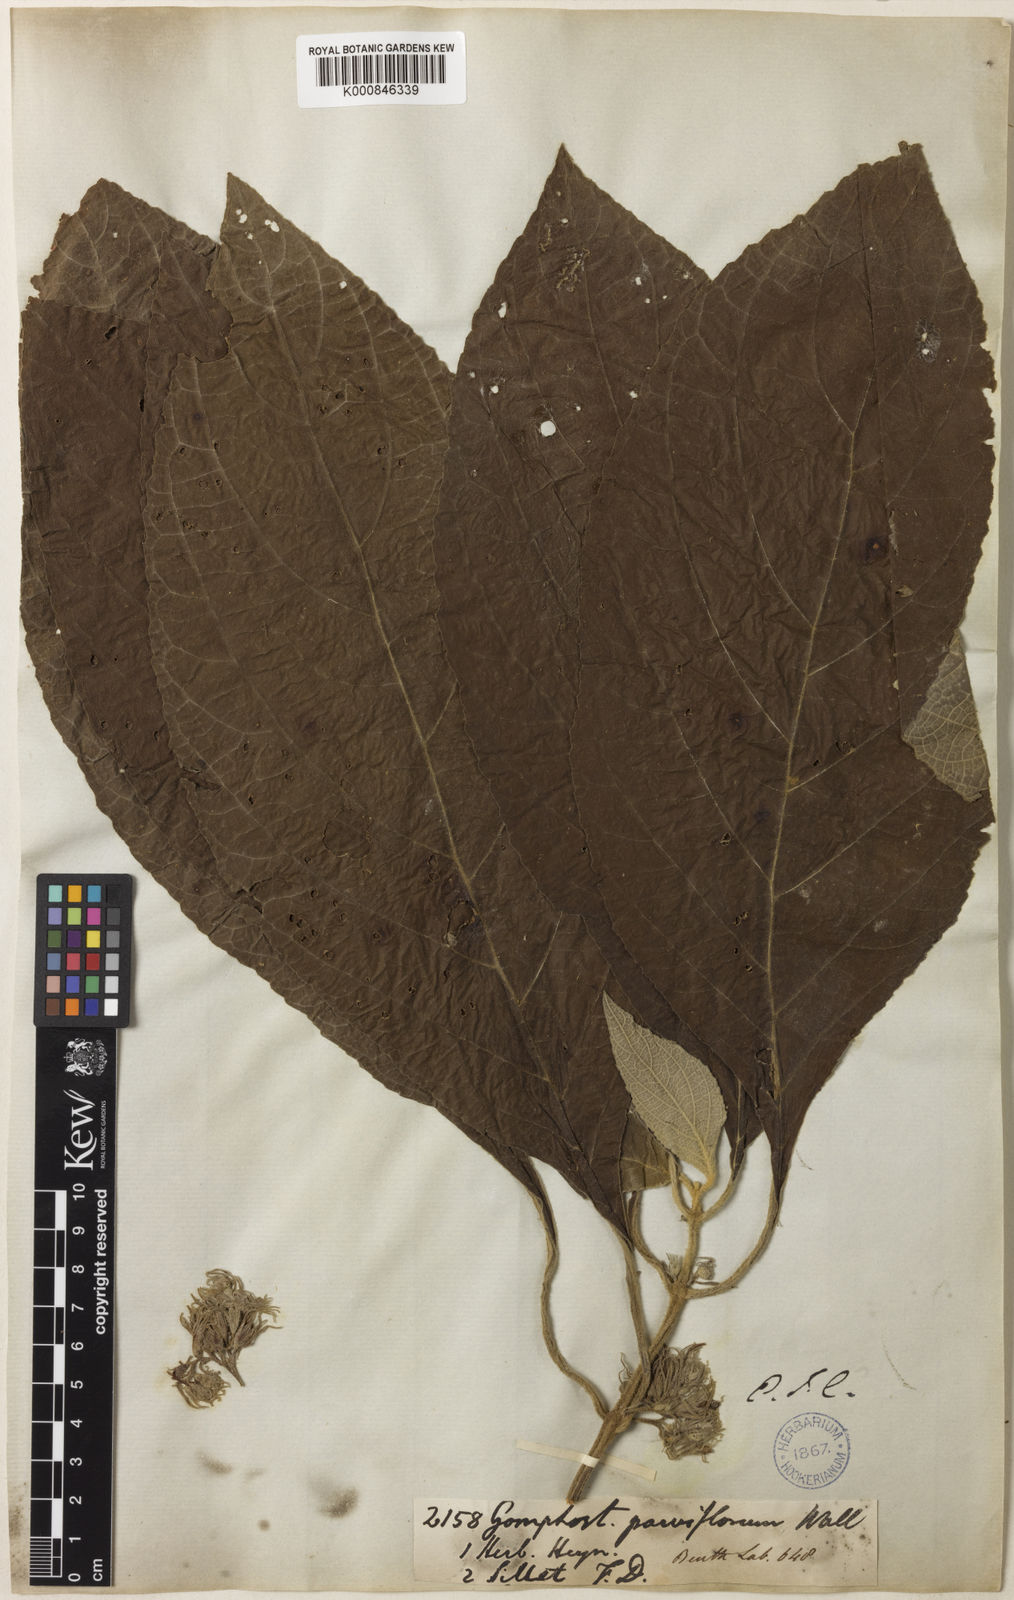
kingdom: Plantae
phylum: Tracheophyta
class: Magnoliopsida
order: Lamiales
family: Lamiaceae
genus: Gomphostemma
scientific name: Gomphostemma parviflorum
